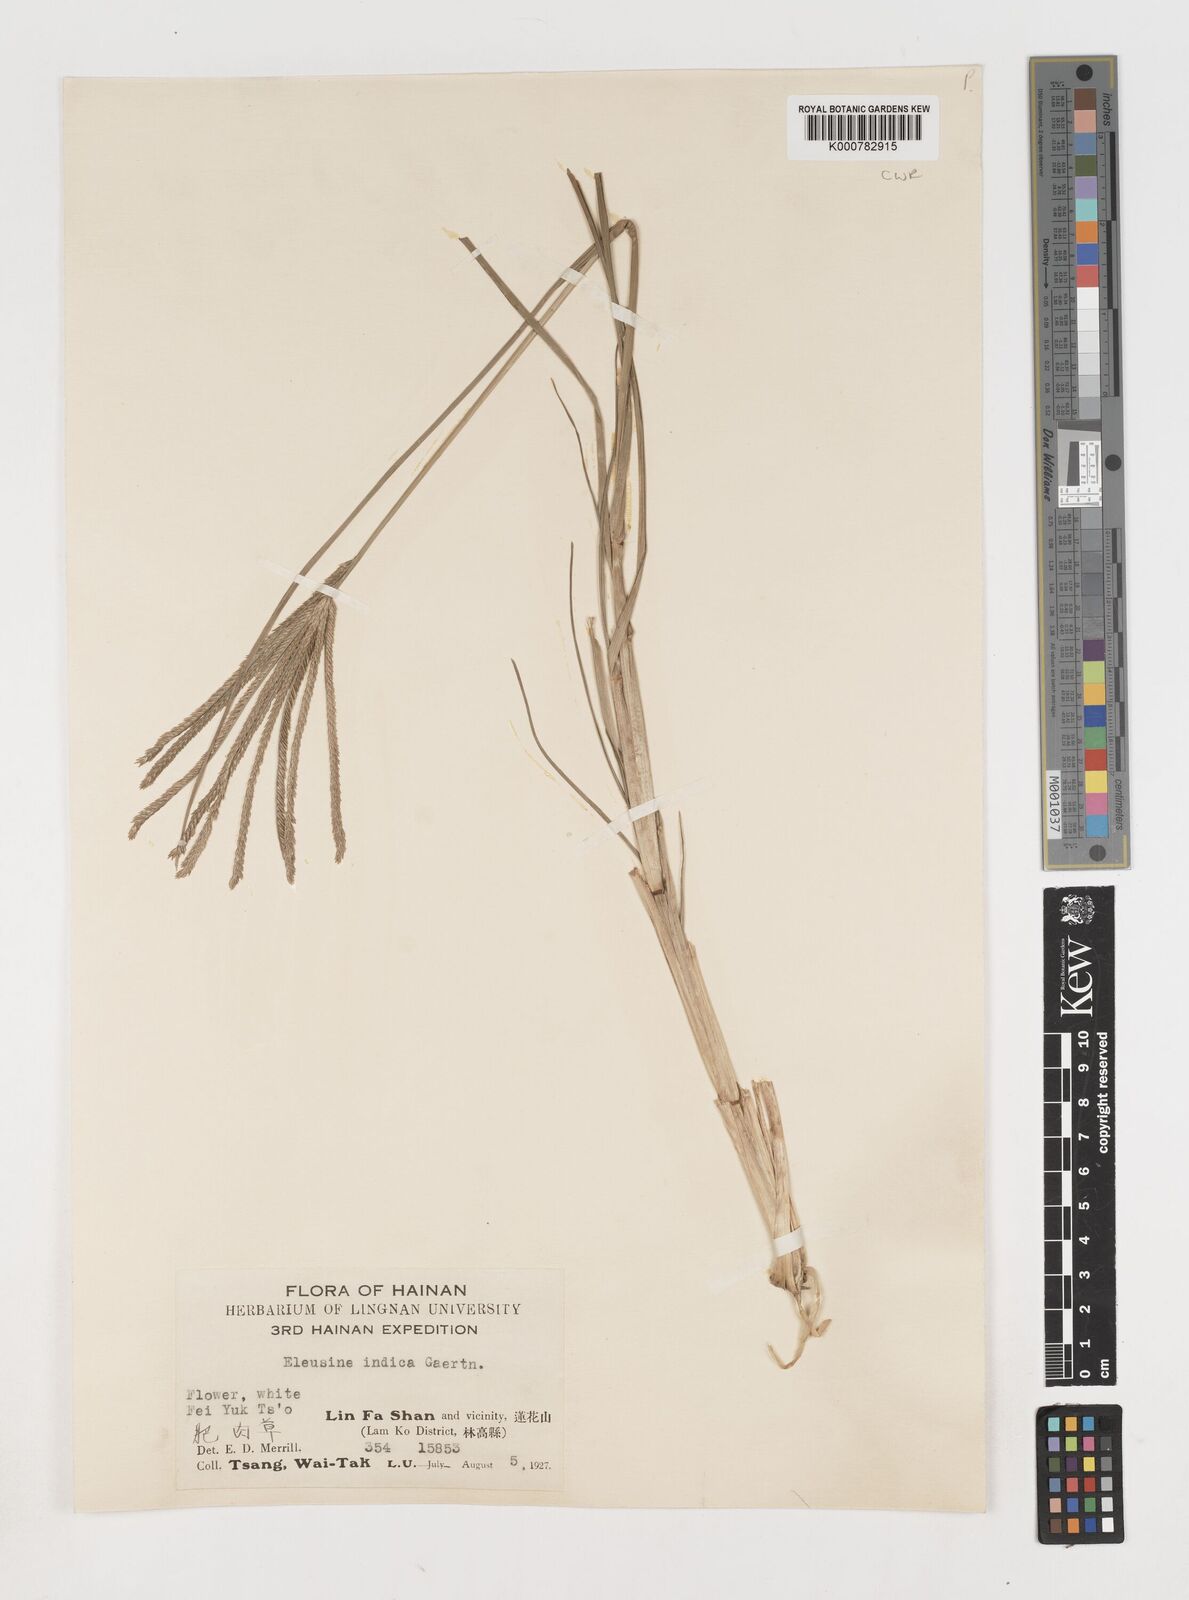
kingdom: Plantae
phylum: Tracheophyta
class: Liliopsida
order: Poales
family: Poaceae
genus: Eleusine
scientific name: Eleusine indica
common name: Yard-grass
